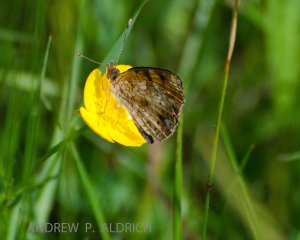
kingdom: Animalia
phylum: Arthropoda
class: Insecta
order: Lepidoptera
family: Nymphalidae
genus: Phyciodes
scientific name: Phyciodes tharos
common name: Pearl Crescent
